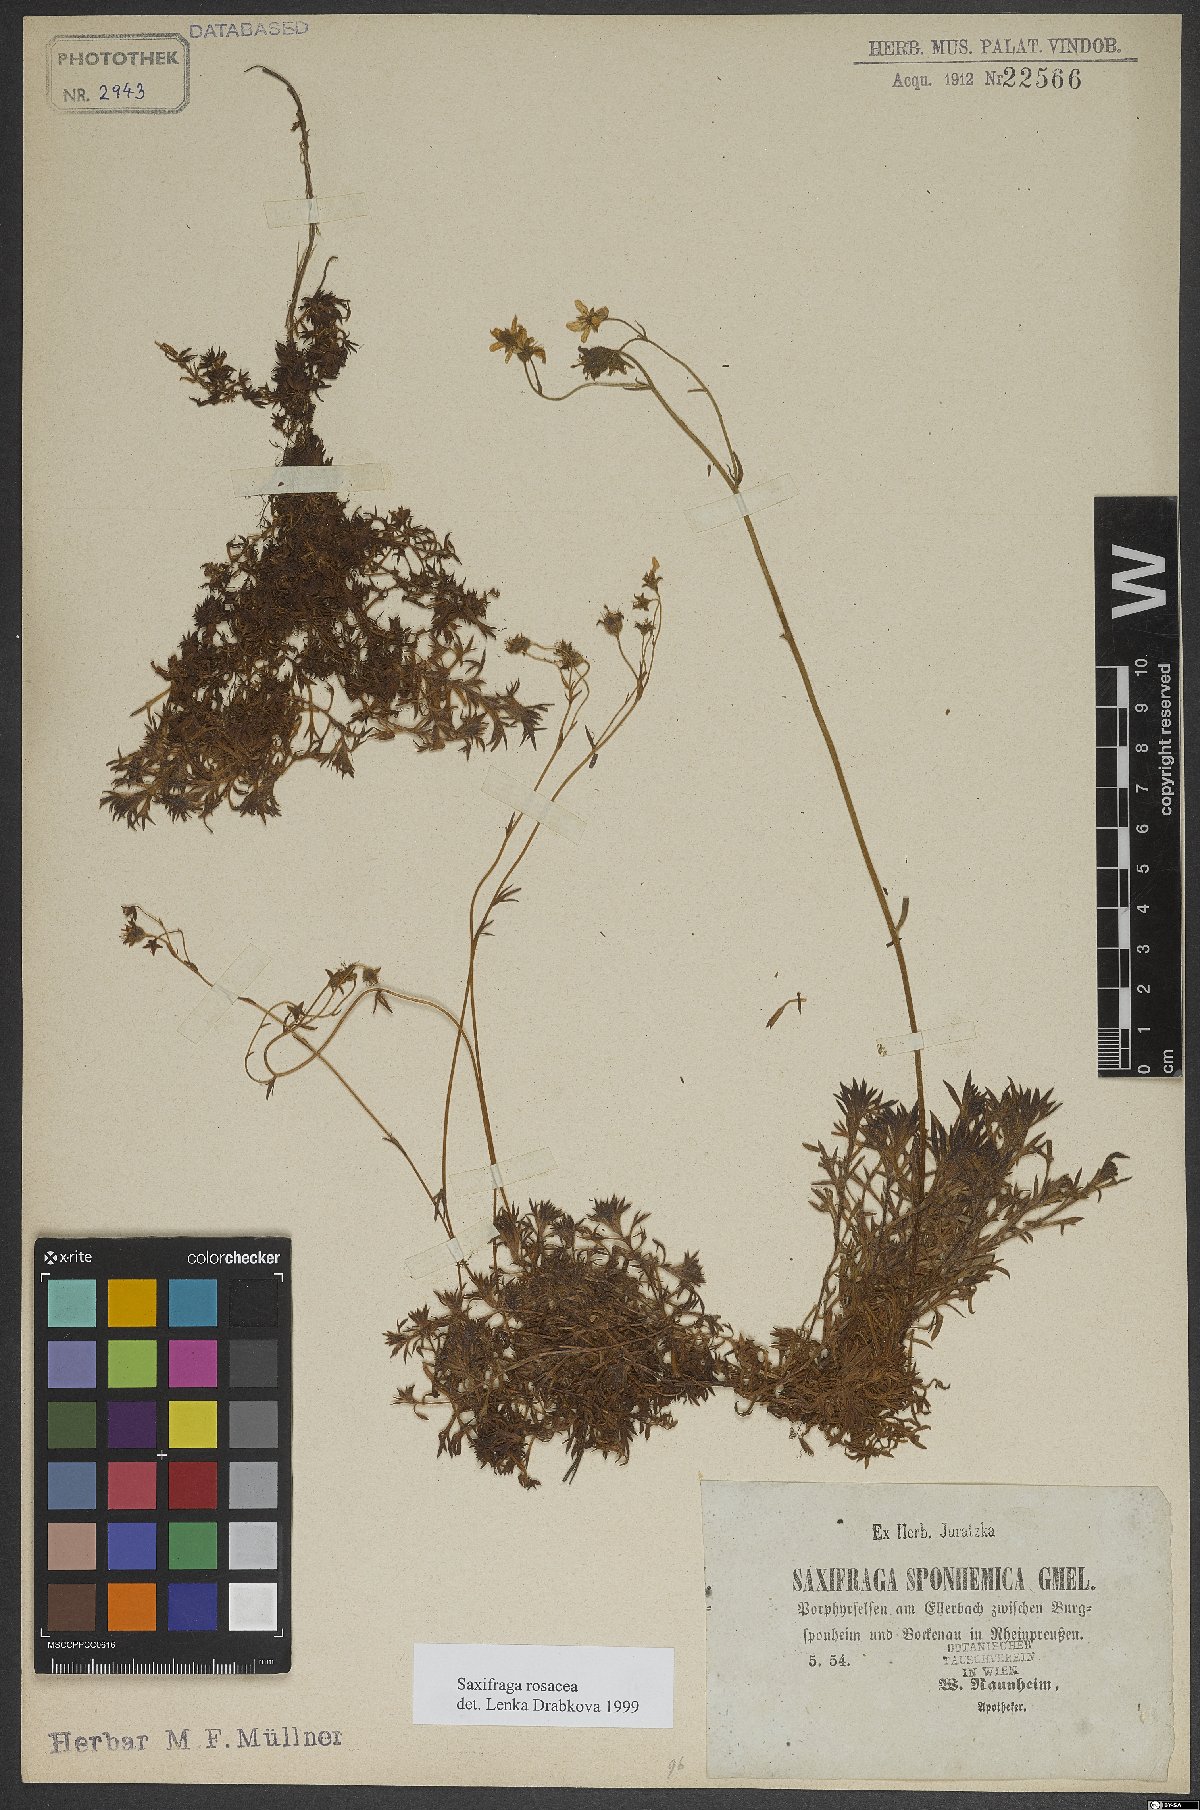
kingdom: Plantae
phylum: Tracheophyta
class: Magnoliopsida
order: Saxifragales
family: Saxifragaceae
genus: Saxifraga
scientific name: Saxifraga rosacea
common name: Irish saxifrage
